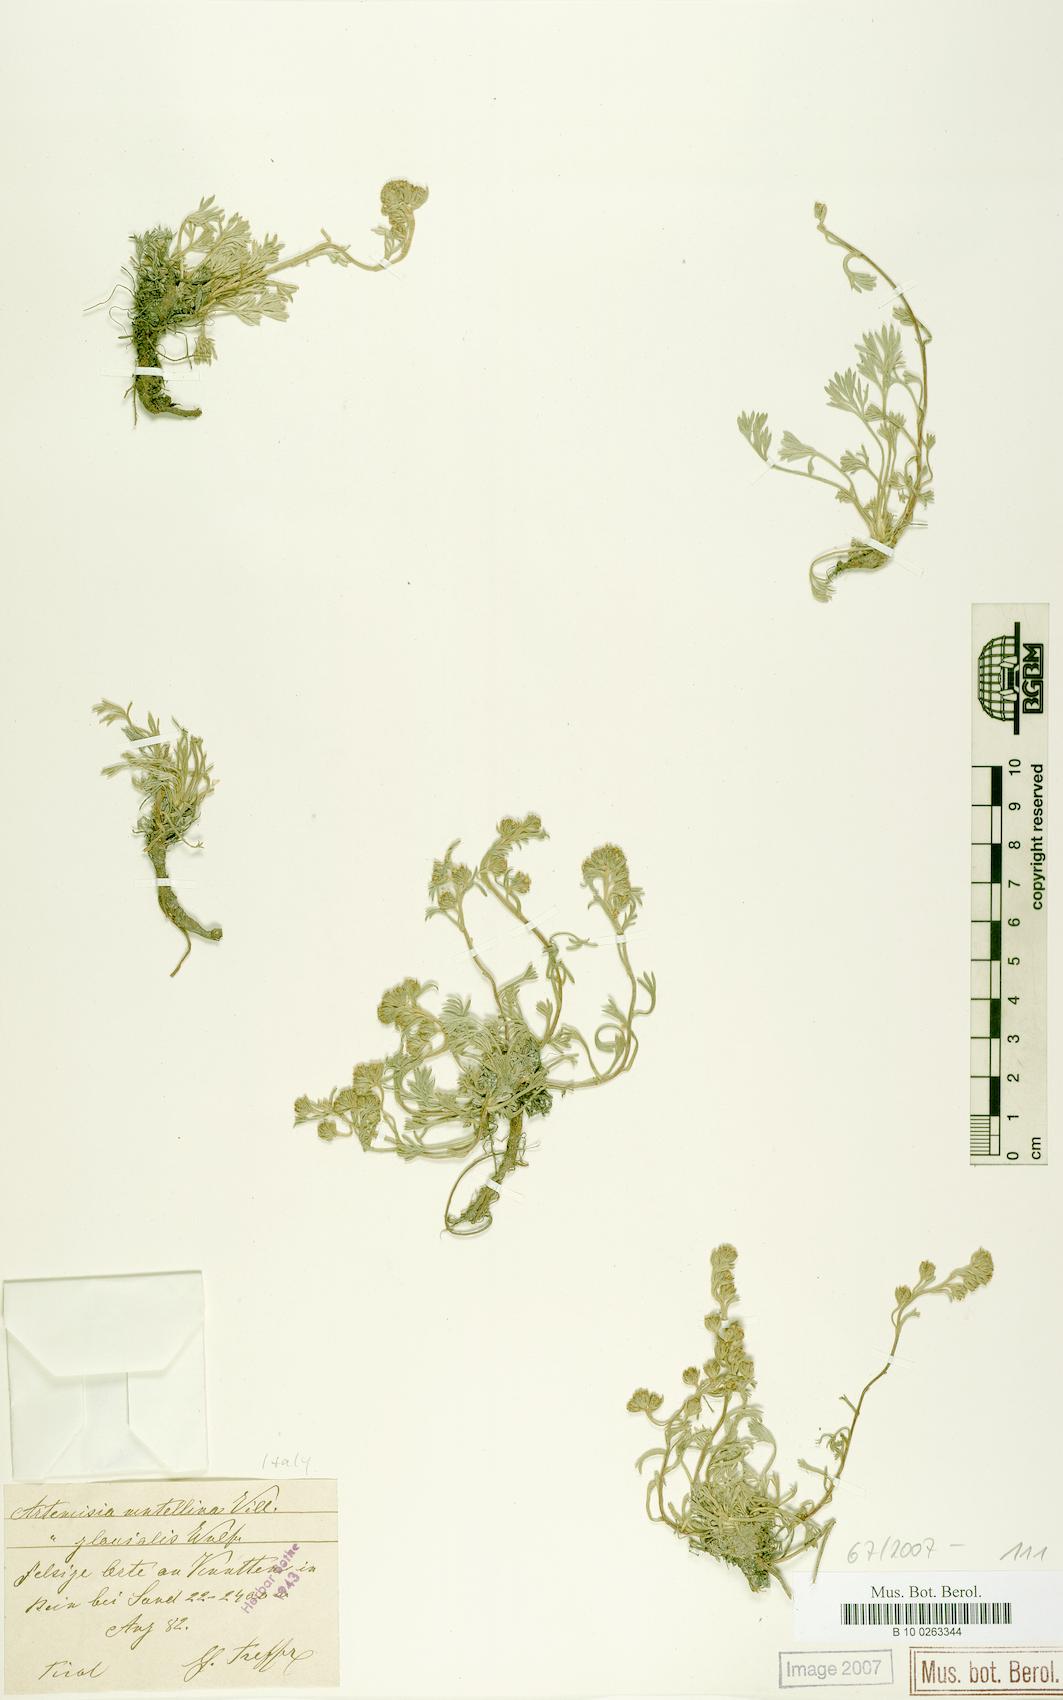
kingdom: Plantae
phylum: Tracheophyta
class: Magnoliopsida
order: Asterales
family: Asteraceae
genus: Artemisia
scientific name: Artemisia mutellina
